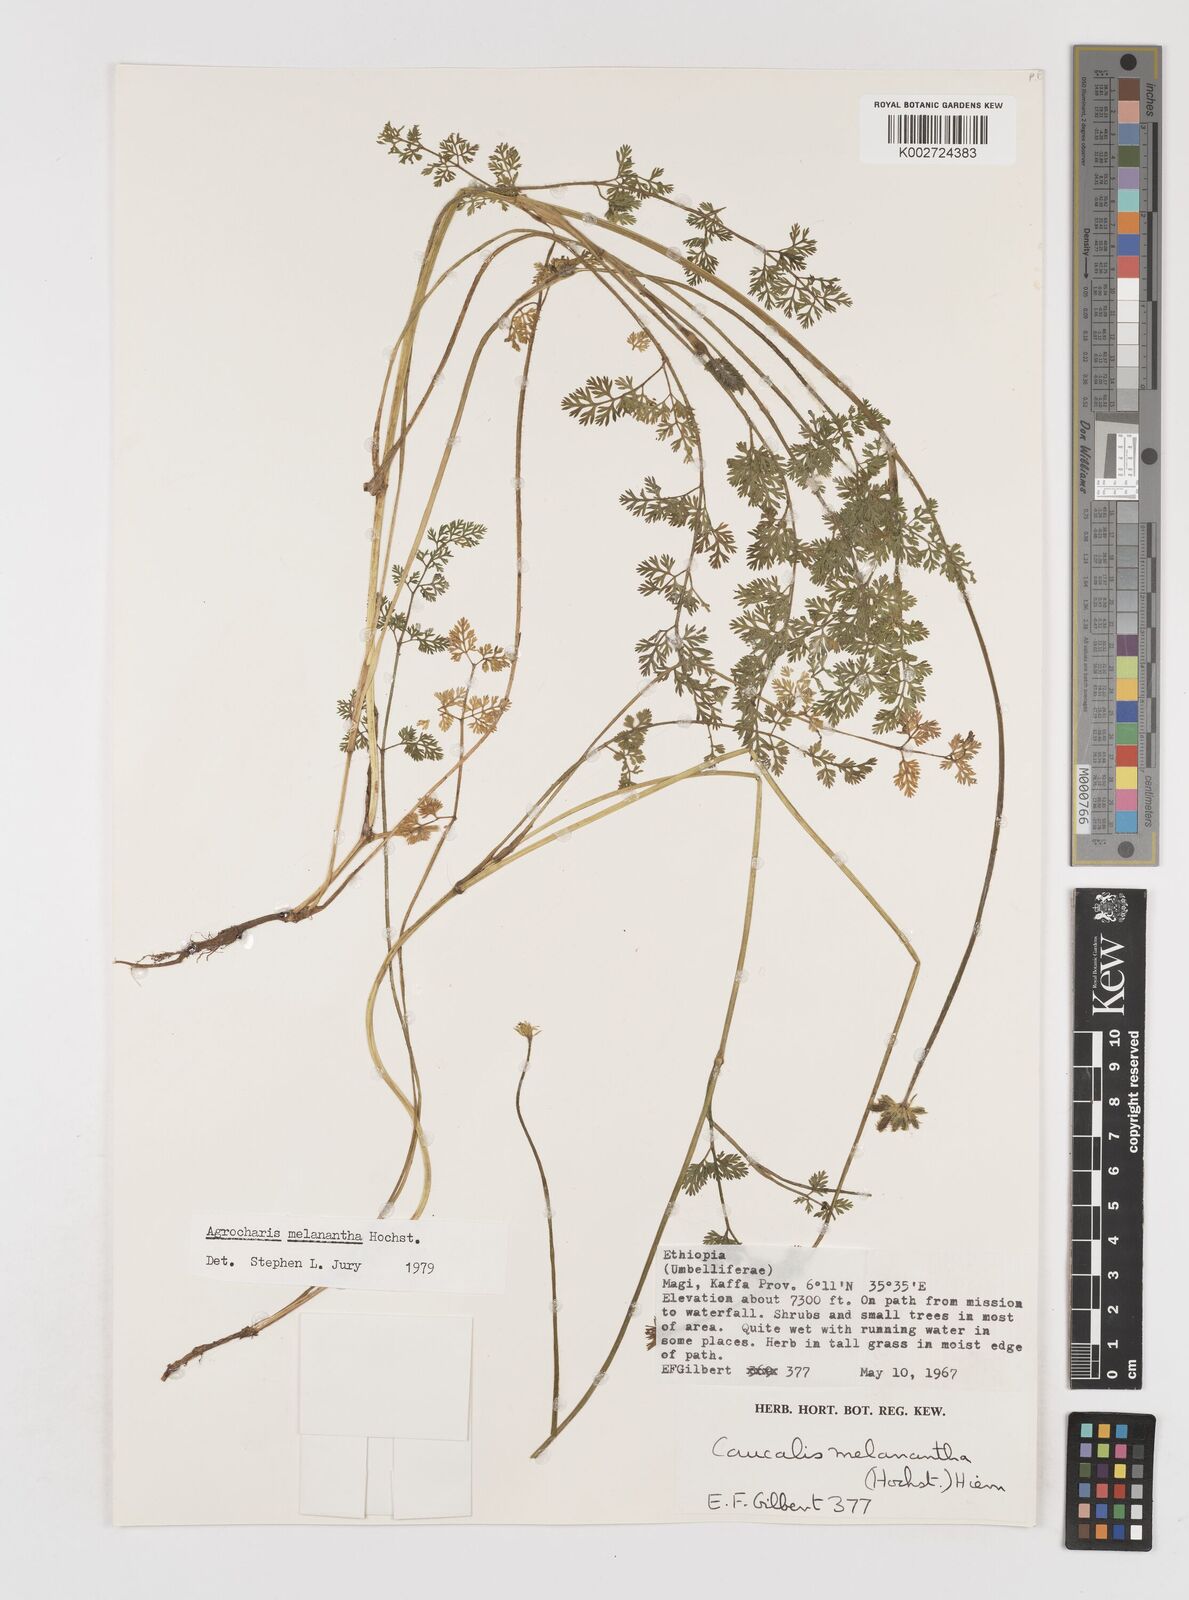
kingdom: Plantae
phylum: Tracheophyta
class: Magnoliopsida
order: Apiales
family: Apiaceae
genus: Daucus
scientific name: Daucus melananthus
